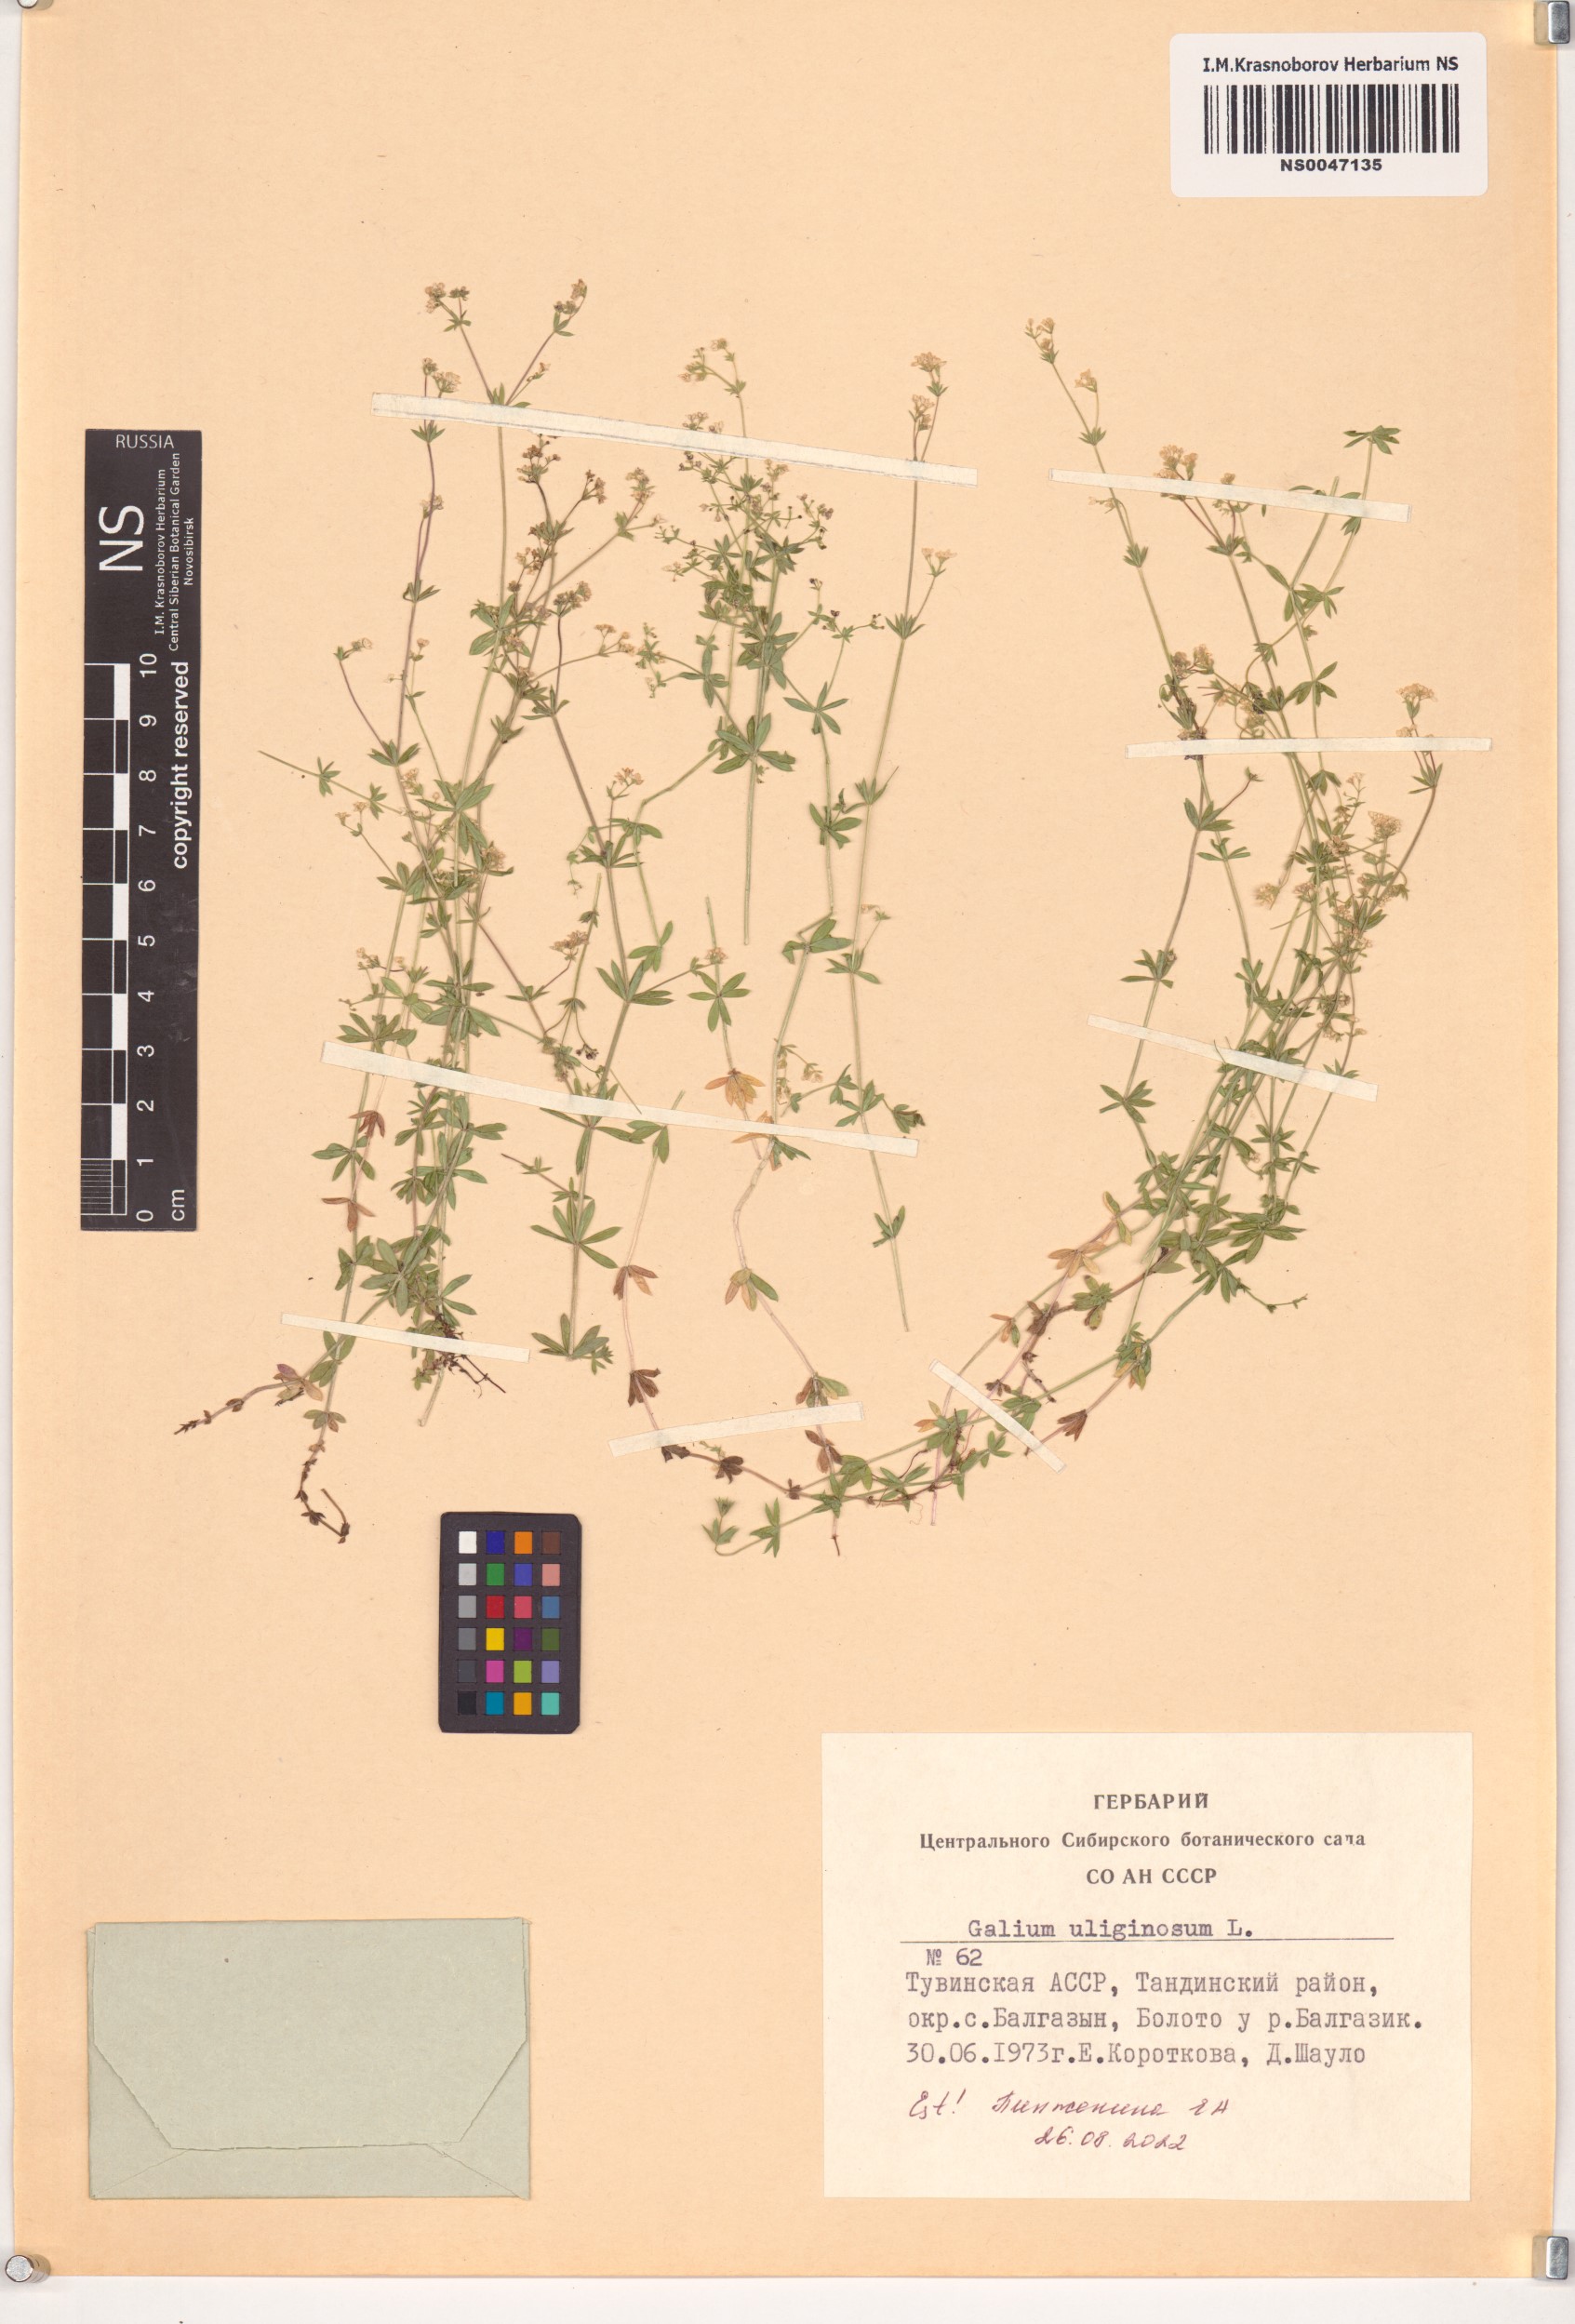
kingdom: Plantae
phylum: Tracheophyta
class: Magnoliopsida
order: Gentianales
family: Rubiaceae
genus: Galium
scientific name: Galium uliginosum
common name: Fen bedstraw
